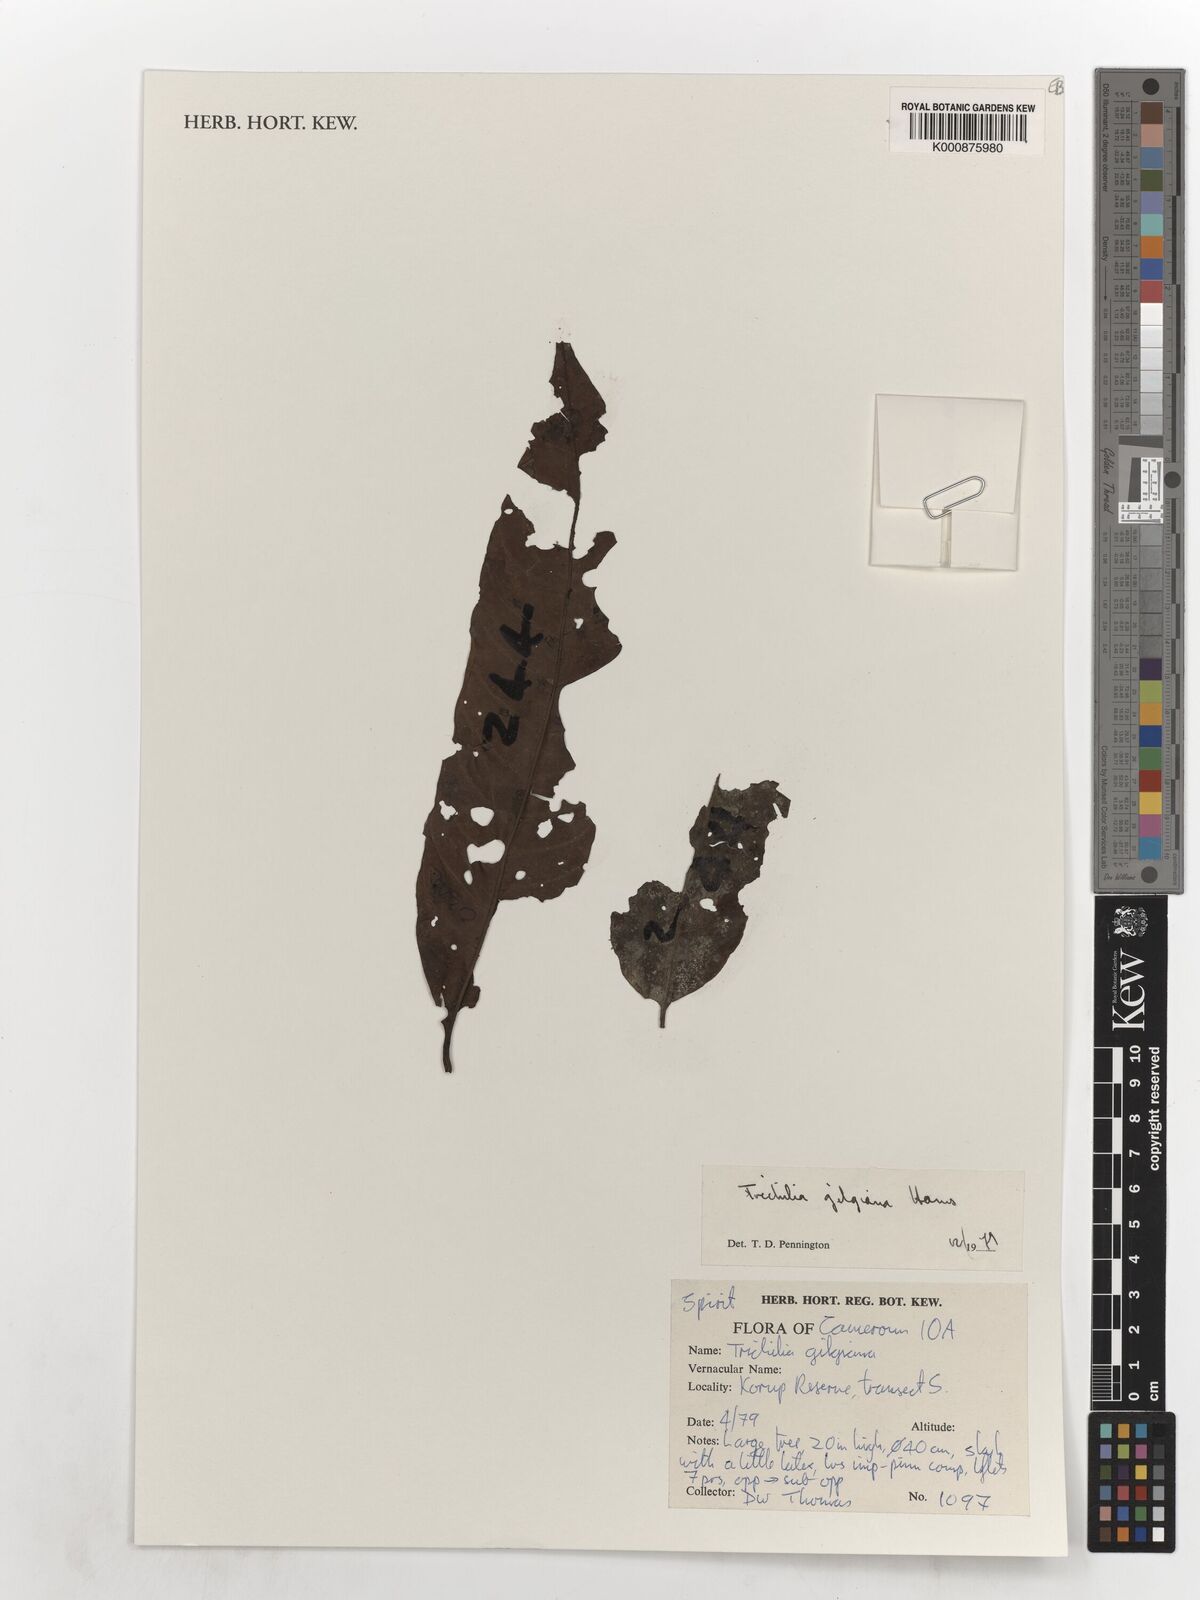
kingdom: Plantae
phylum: Tracheophyta
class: Magnoliopsida
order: Sapindales
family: Meliaceae
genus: Trichilia
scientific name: Trichilia gilgiana
